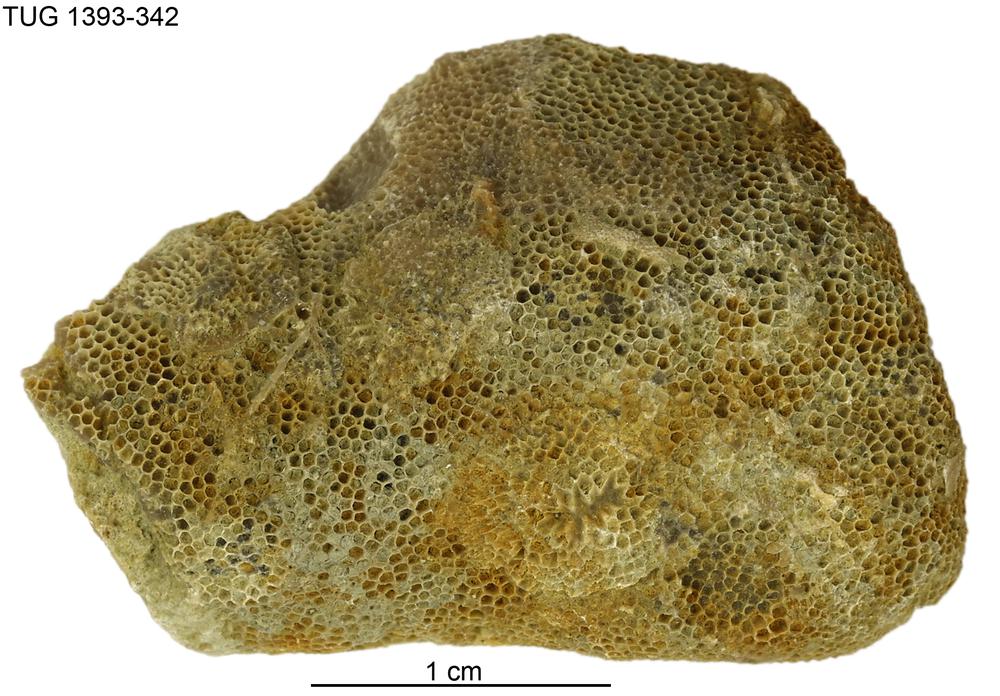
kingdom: Animalia
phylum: Bryozoa
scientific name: Bryozoa
